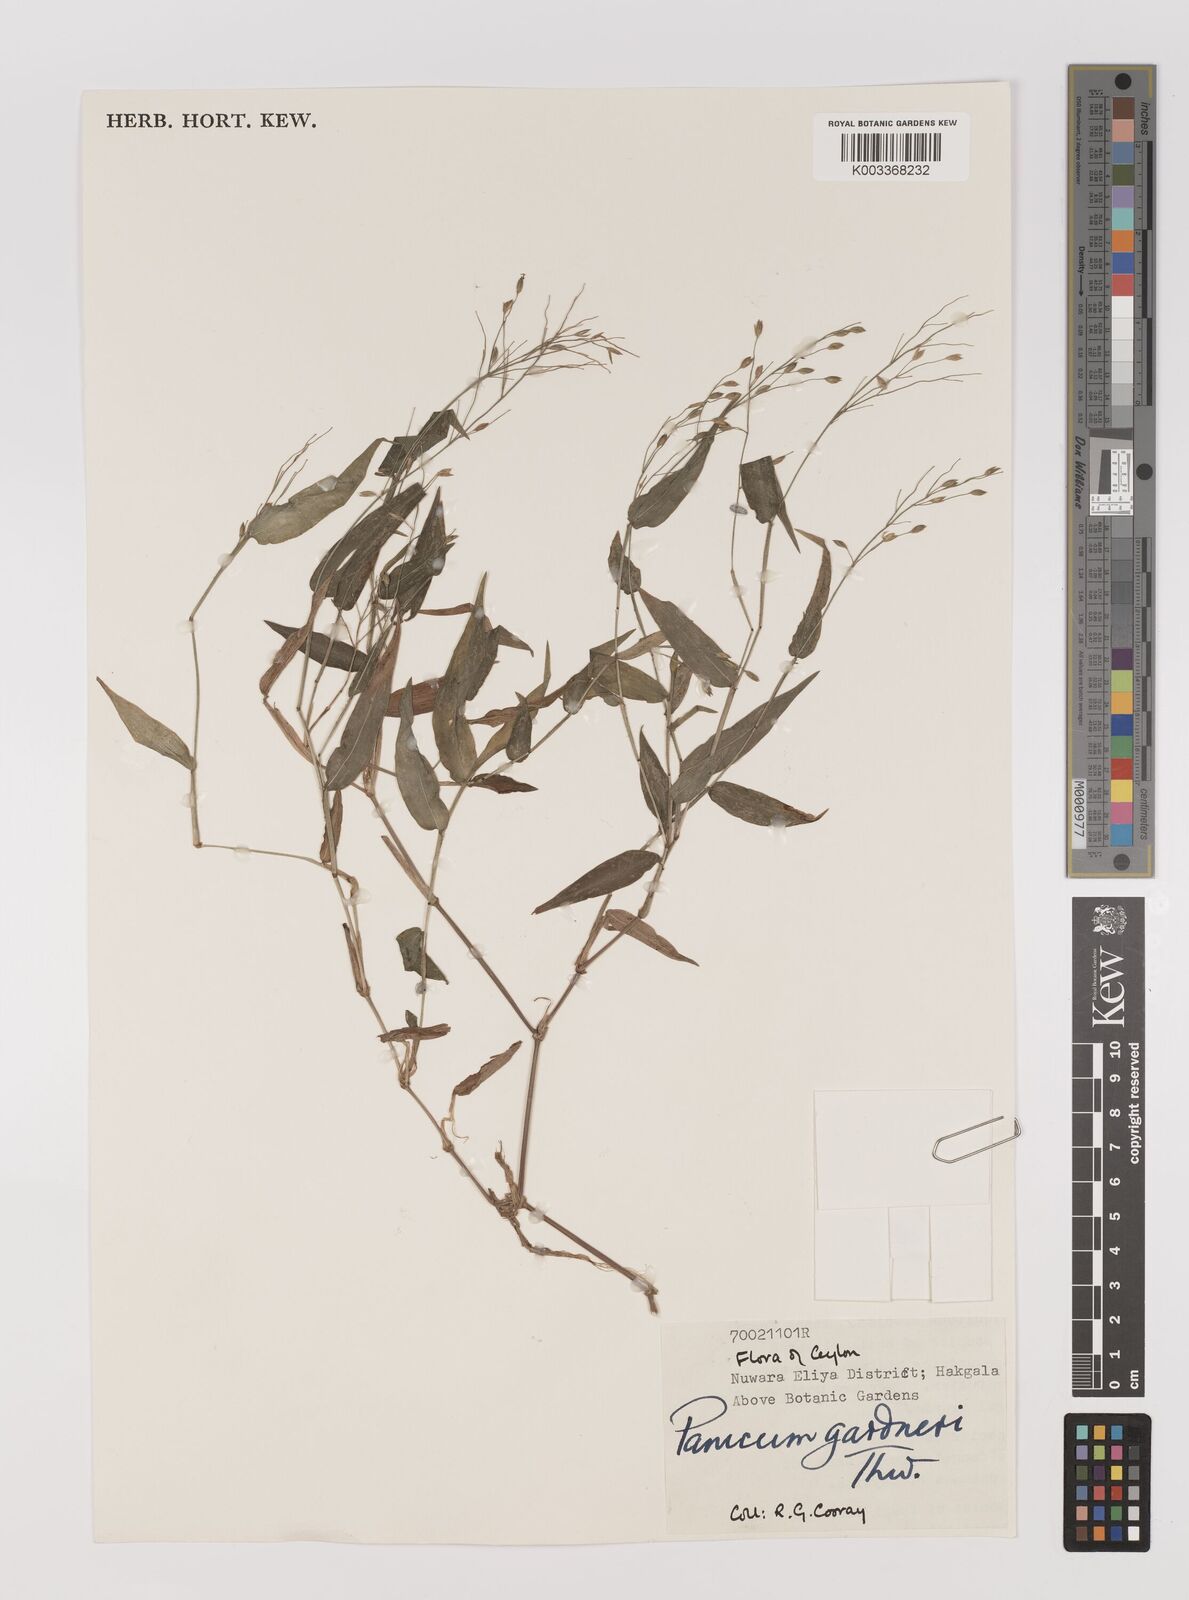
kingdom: Plantae
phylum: Tracheophyta
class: Liliopsida
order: Poales
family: Poaceae
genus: Panicum
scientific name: Panicum gardneri
